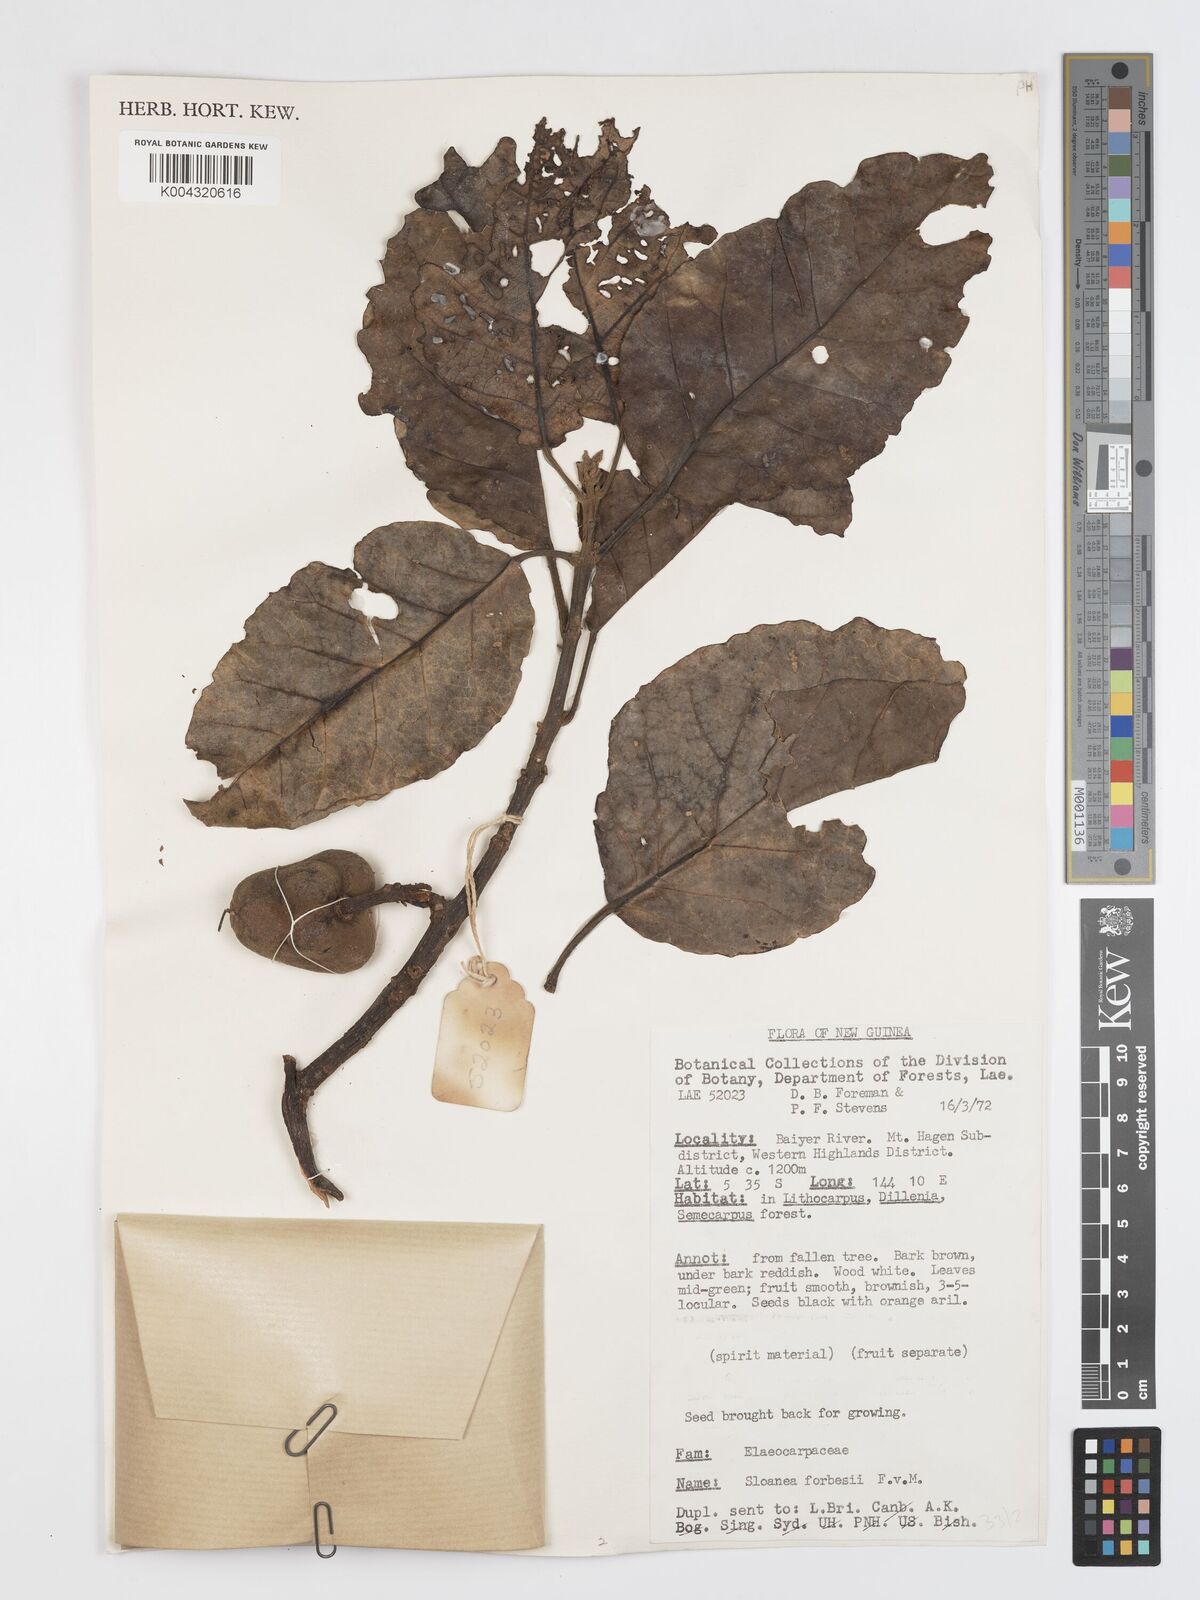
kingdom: Plantae
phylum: Tracheophyta
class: Magnoliopsida
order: Oxalidales
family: Elaeocarpaceae
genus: Sloanea
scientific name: Sloanea forbesii
